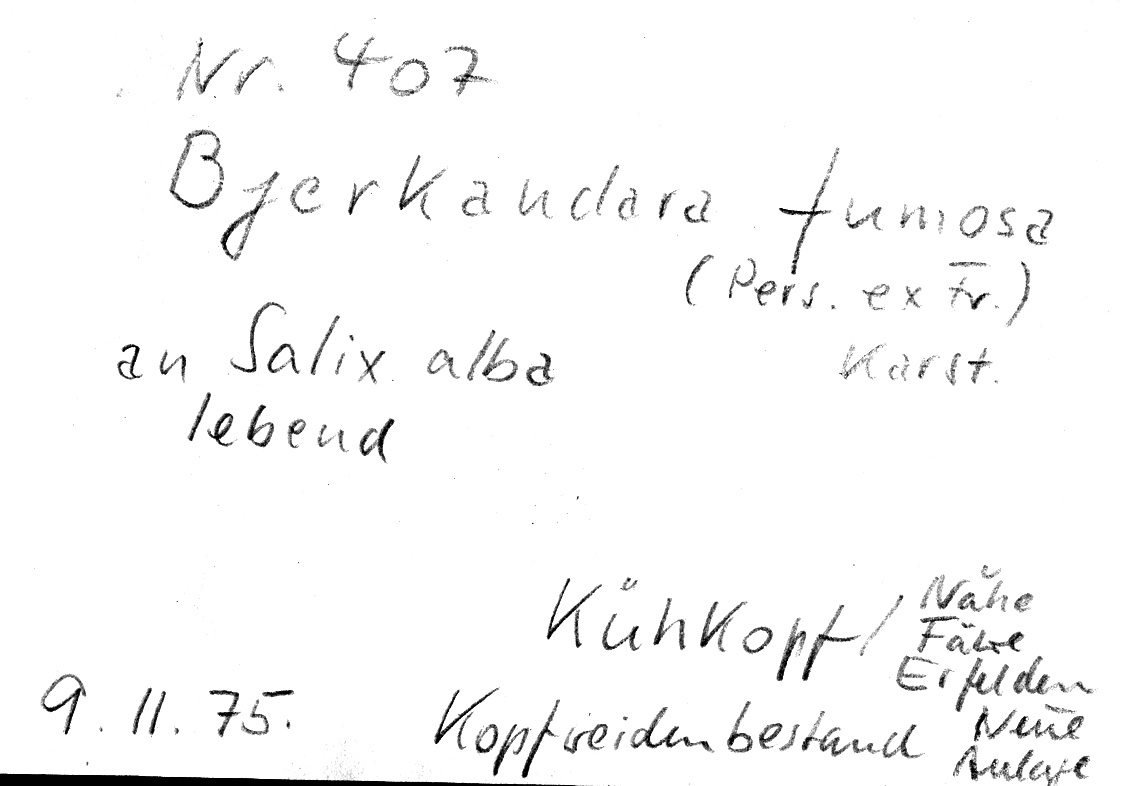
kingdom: Plantae
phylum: Tracheophyta
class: Magnoliopsida
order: Malpighiales
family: Salicaceae
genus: Salix
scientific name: Salix alba
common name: White willow
